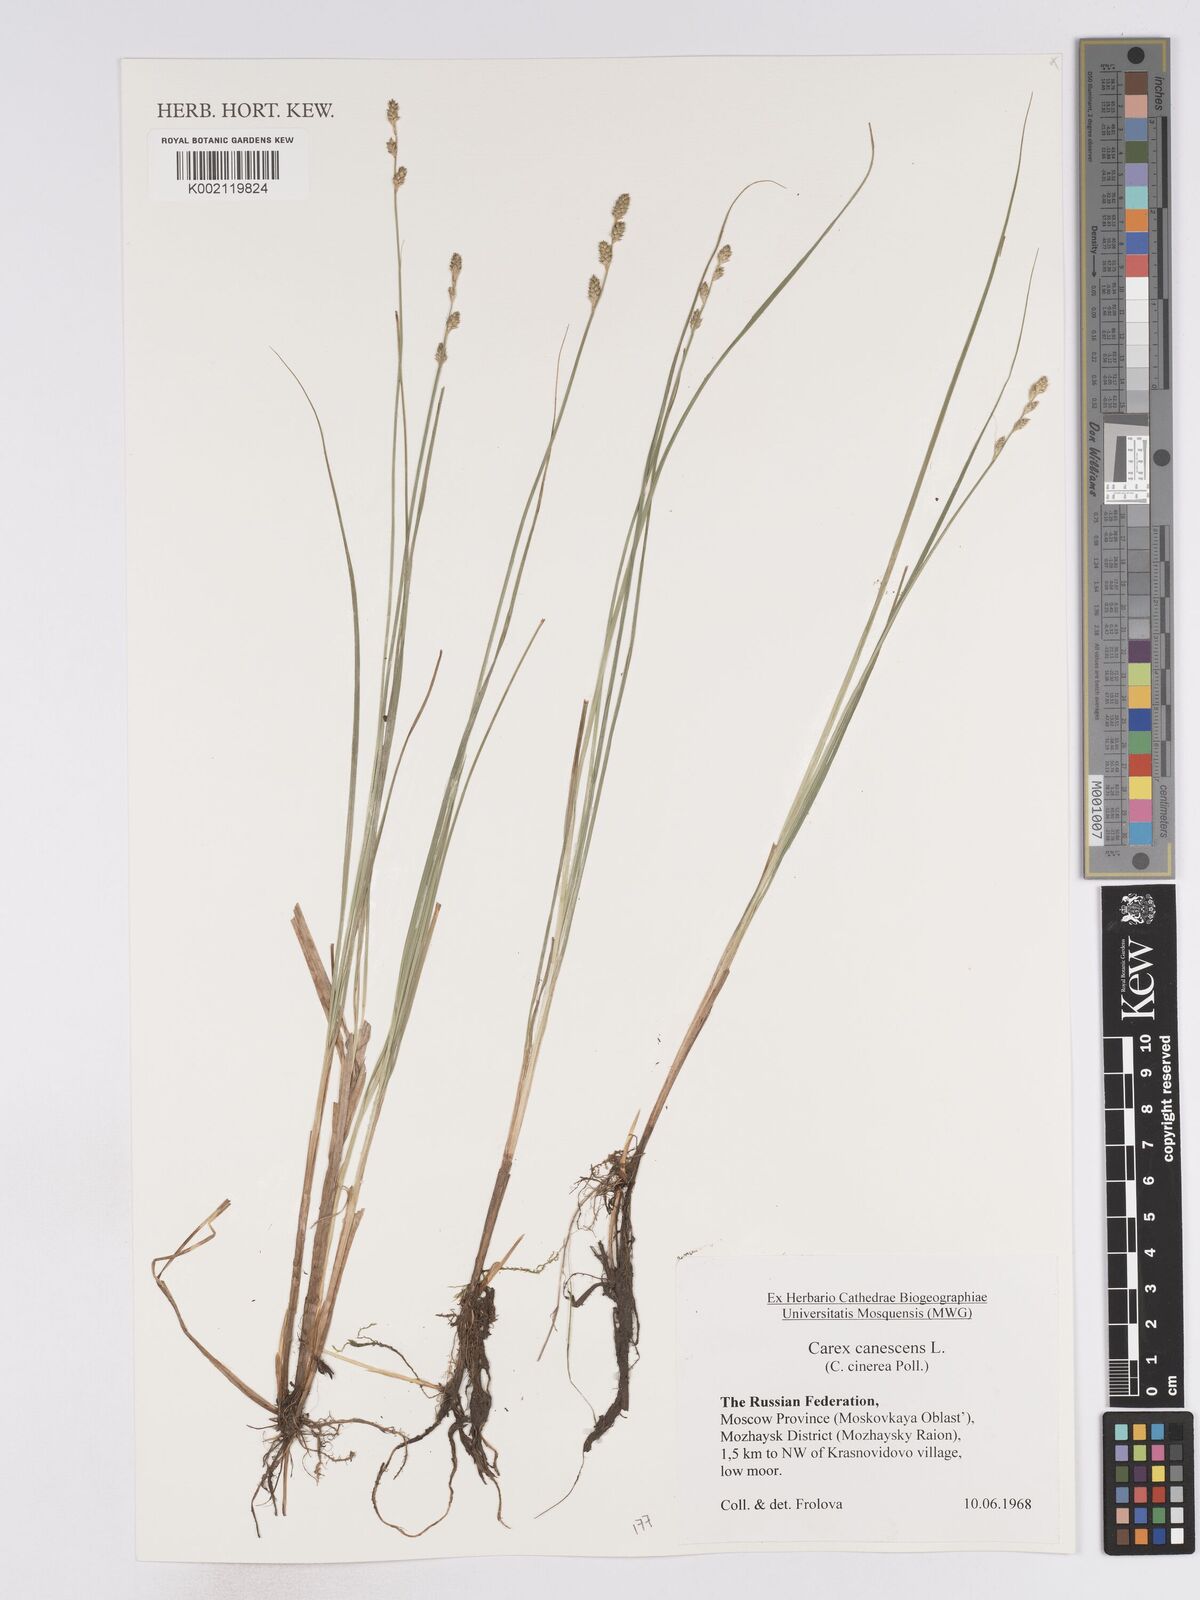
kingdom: Plantae
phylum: Tracheophyta
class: Liliopsida
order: Poales
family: Cyperaceae
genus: Carex
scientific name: Carex curta
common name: White sedge
